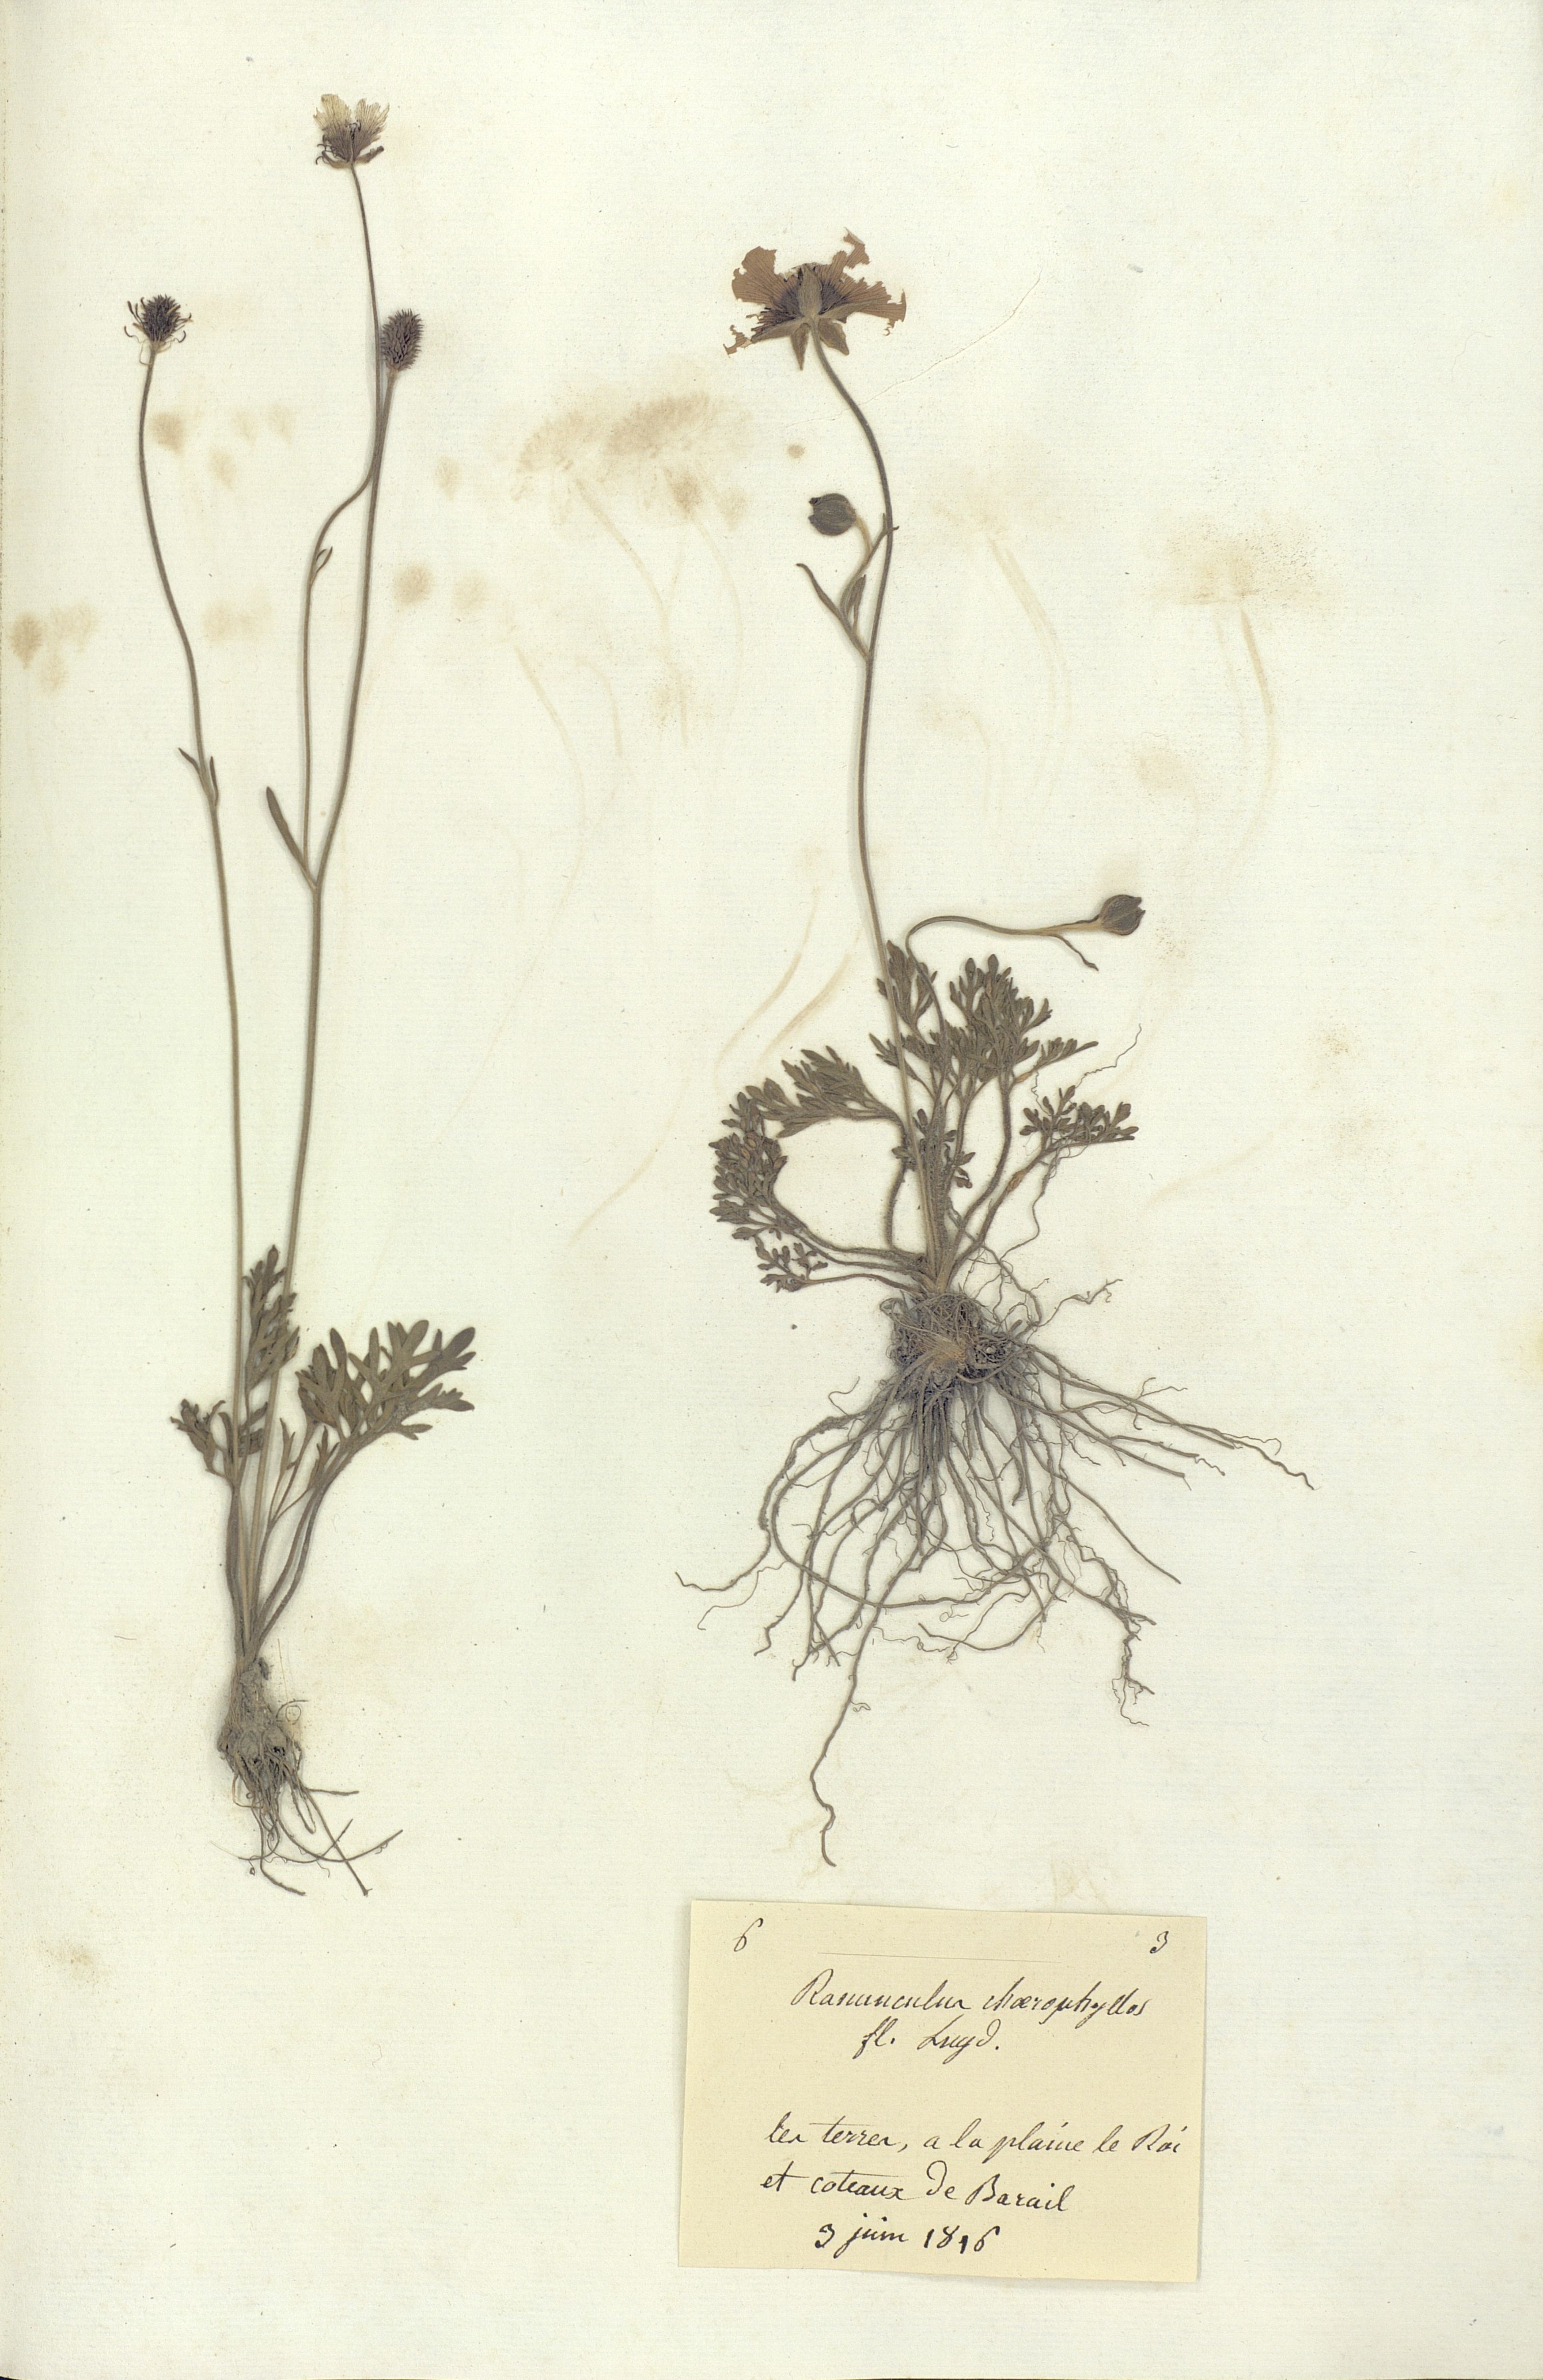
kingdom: Plantae
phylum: Tracheophyta
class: Magnoliopsida
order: Ranunculales
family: Ranunculaceae
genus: Ranunculus
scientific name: Ranunculus chaerophyllos
